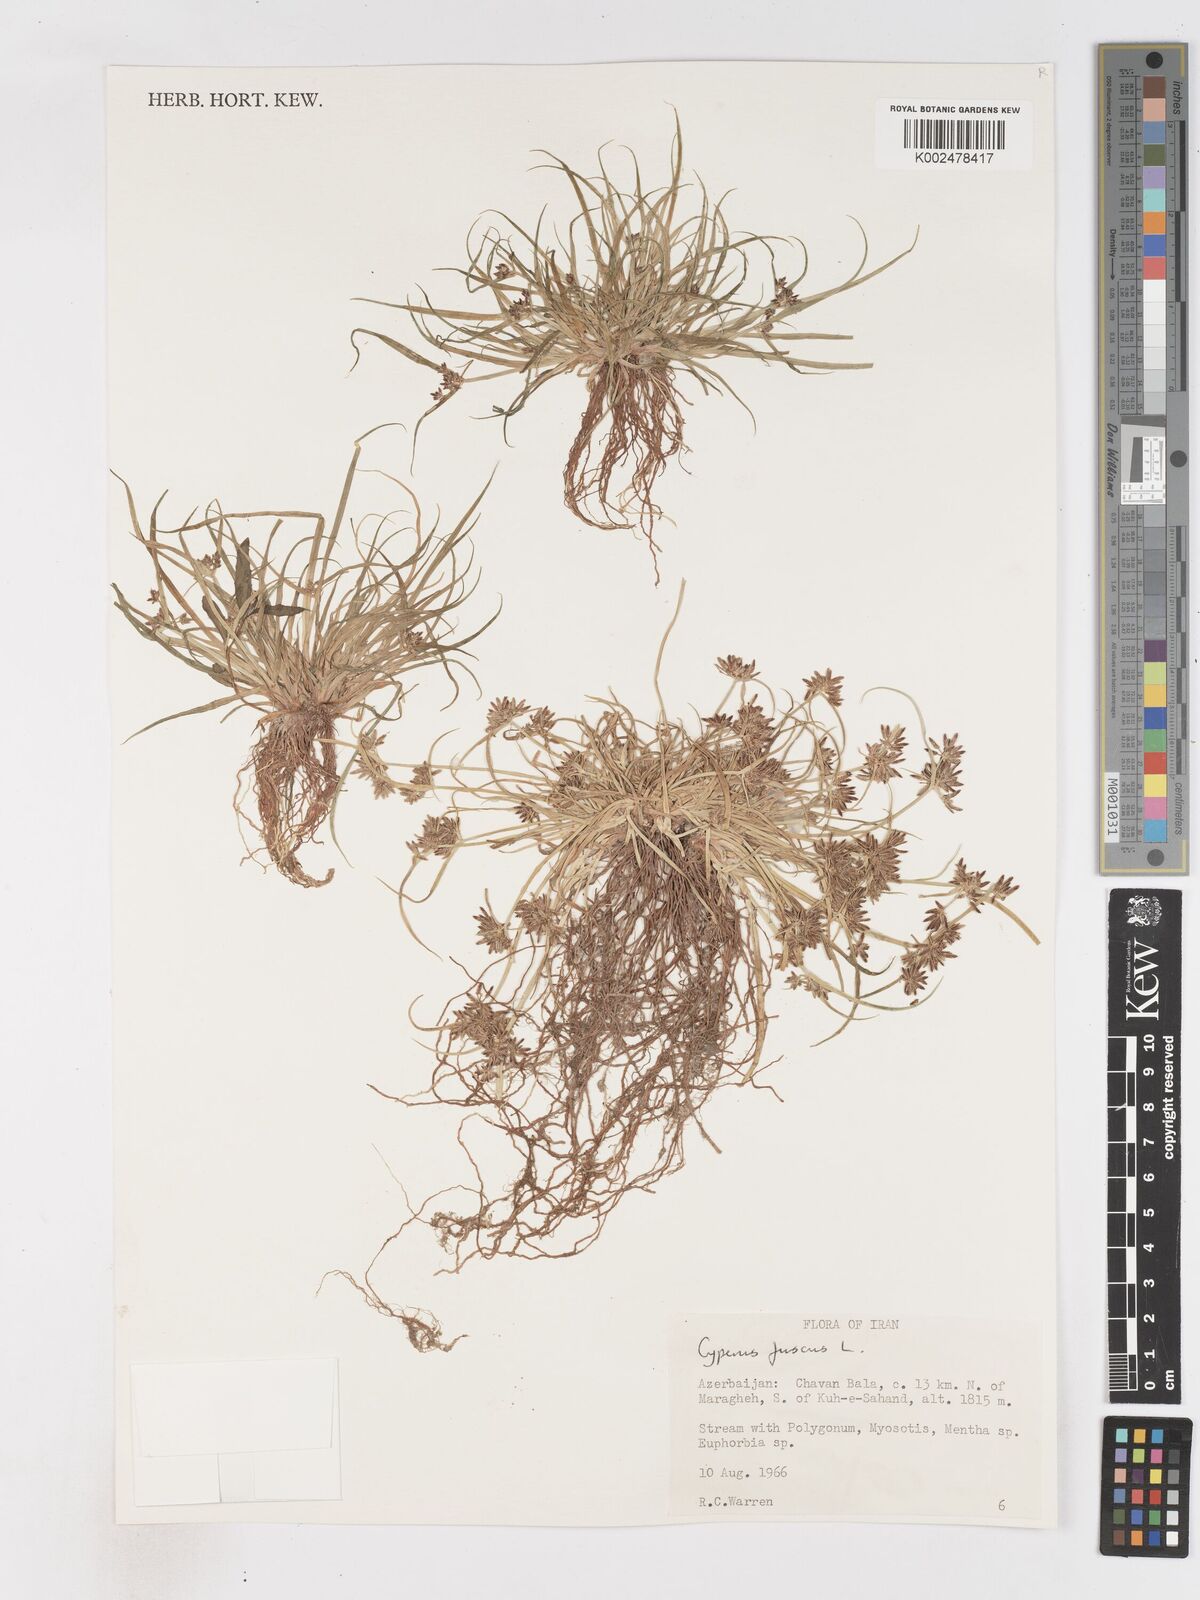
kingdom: Plantae
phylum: Tracheophyta
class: Liliopsida
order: Poales
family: Cyperaceae
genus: Cyperus
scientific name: Cyperus fuscus
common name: Brown galingale
